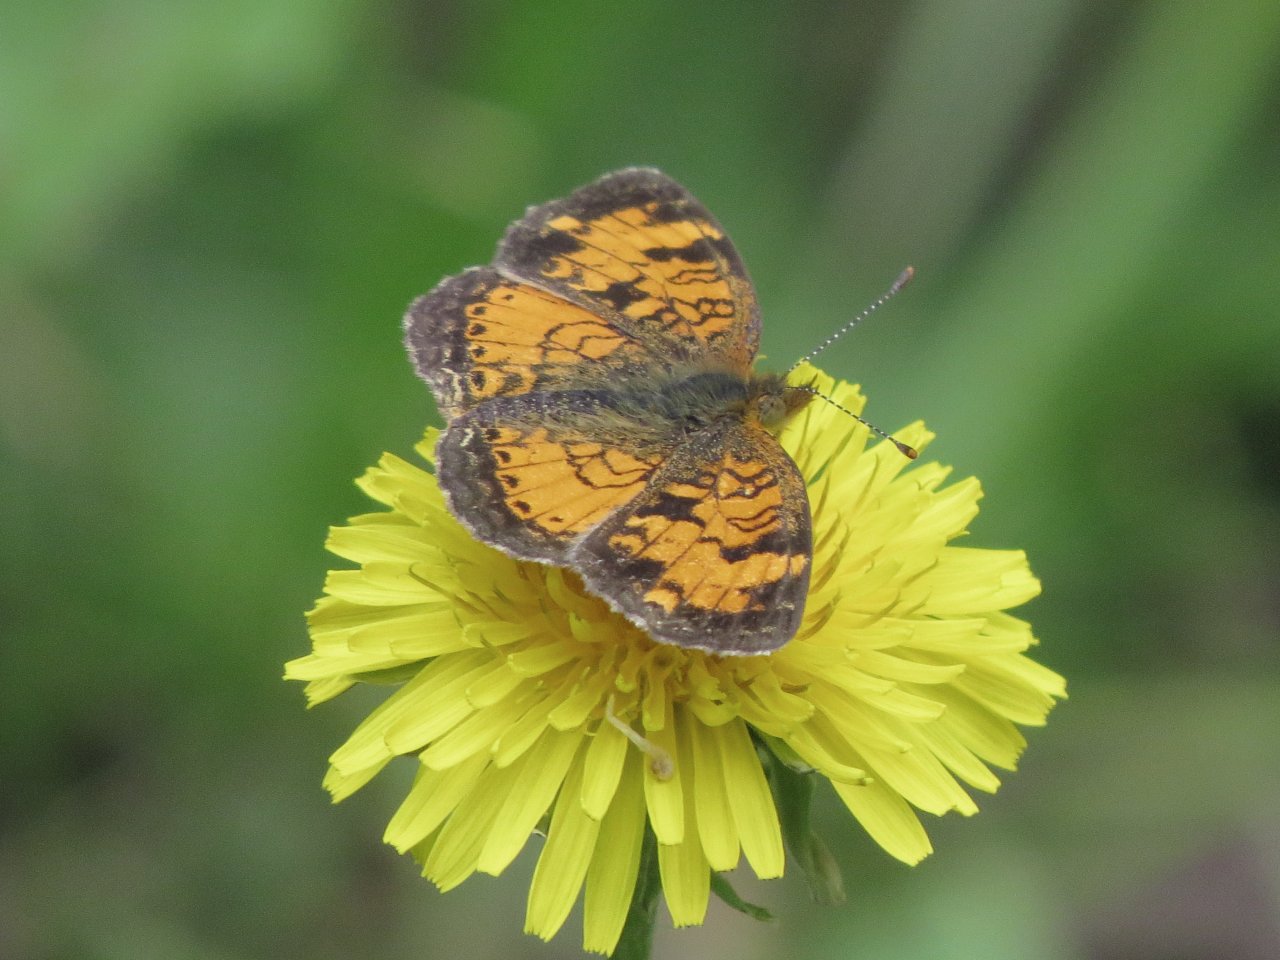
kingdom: Animalia
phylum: Arthropoda
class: Insecta
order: Lepidoptera
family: Nymphalidae
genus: Phyciodes
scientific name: Phyciodes tharos
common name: Northern Crescent
